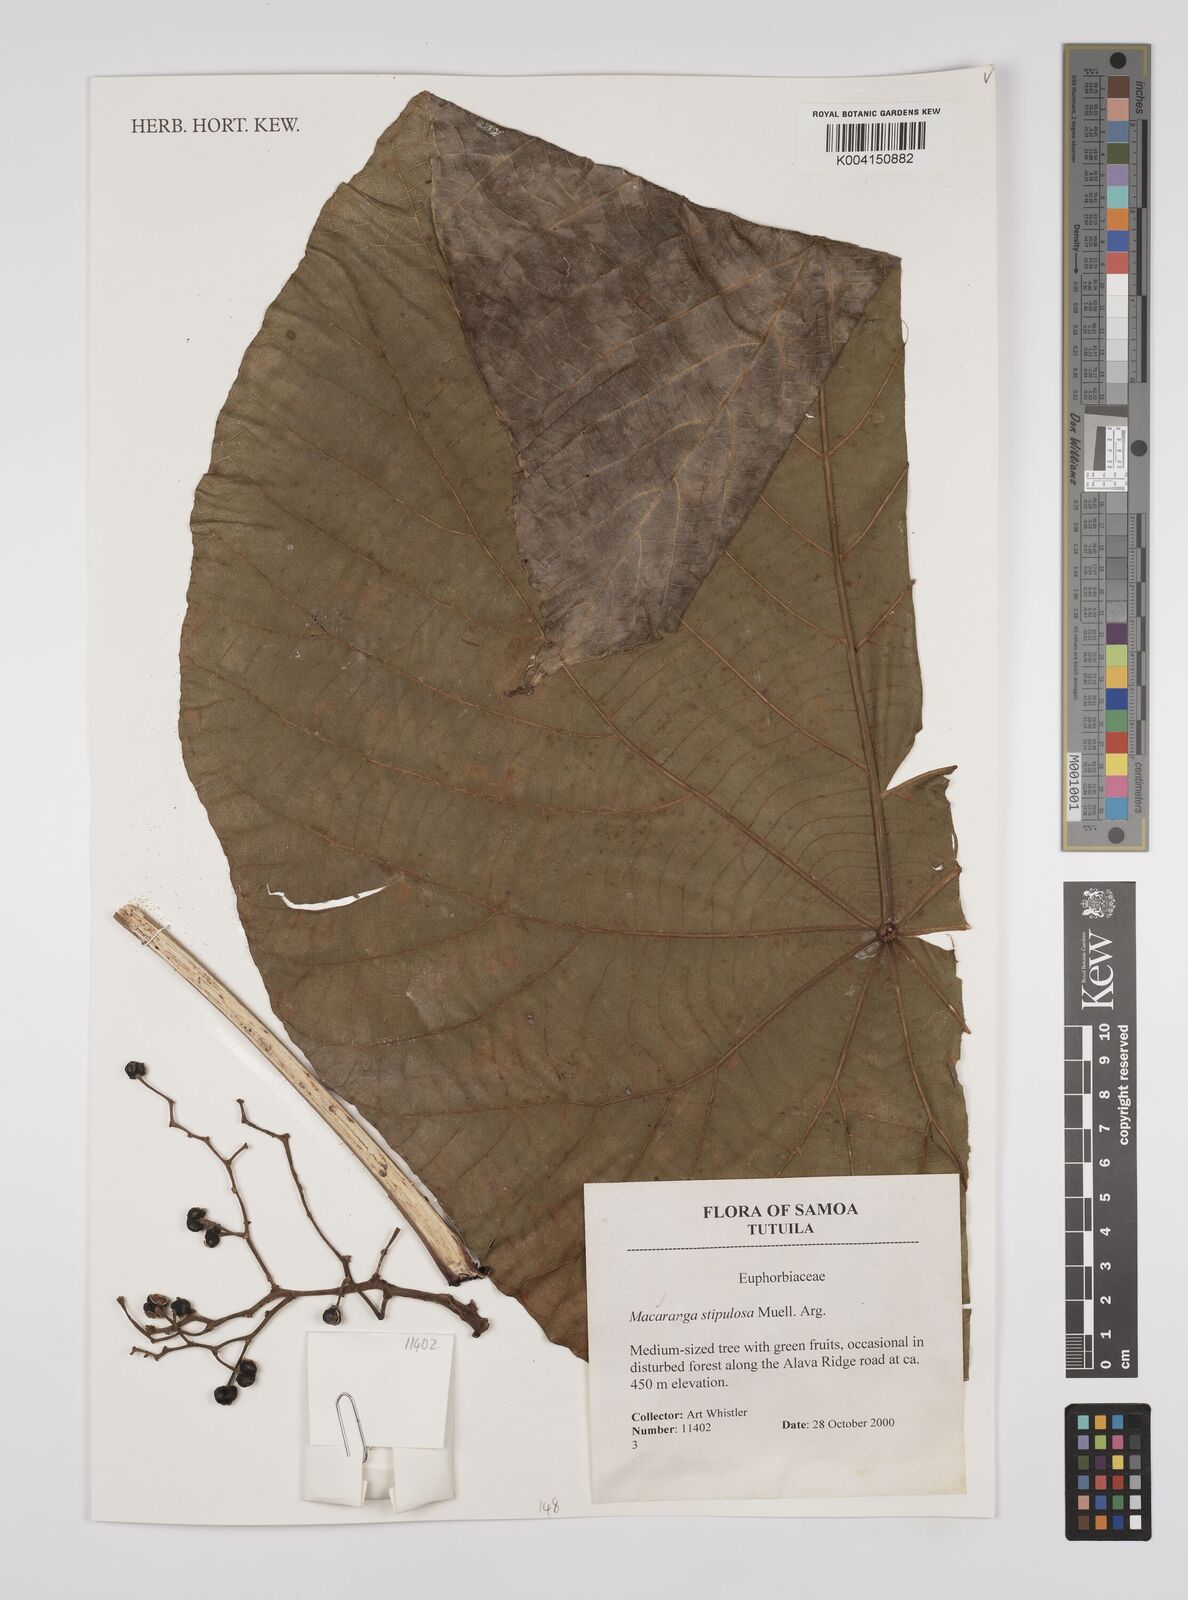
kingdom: Plantae
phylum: Tracheophyta
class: Magnoliopsida
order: Malpighiales
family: Euphorbiaceae
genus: Macaranga
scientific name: Macaranga stipulosa
